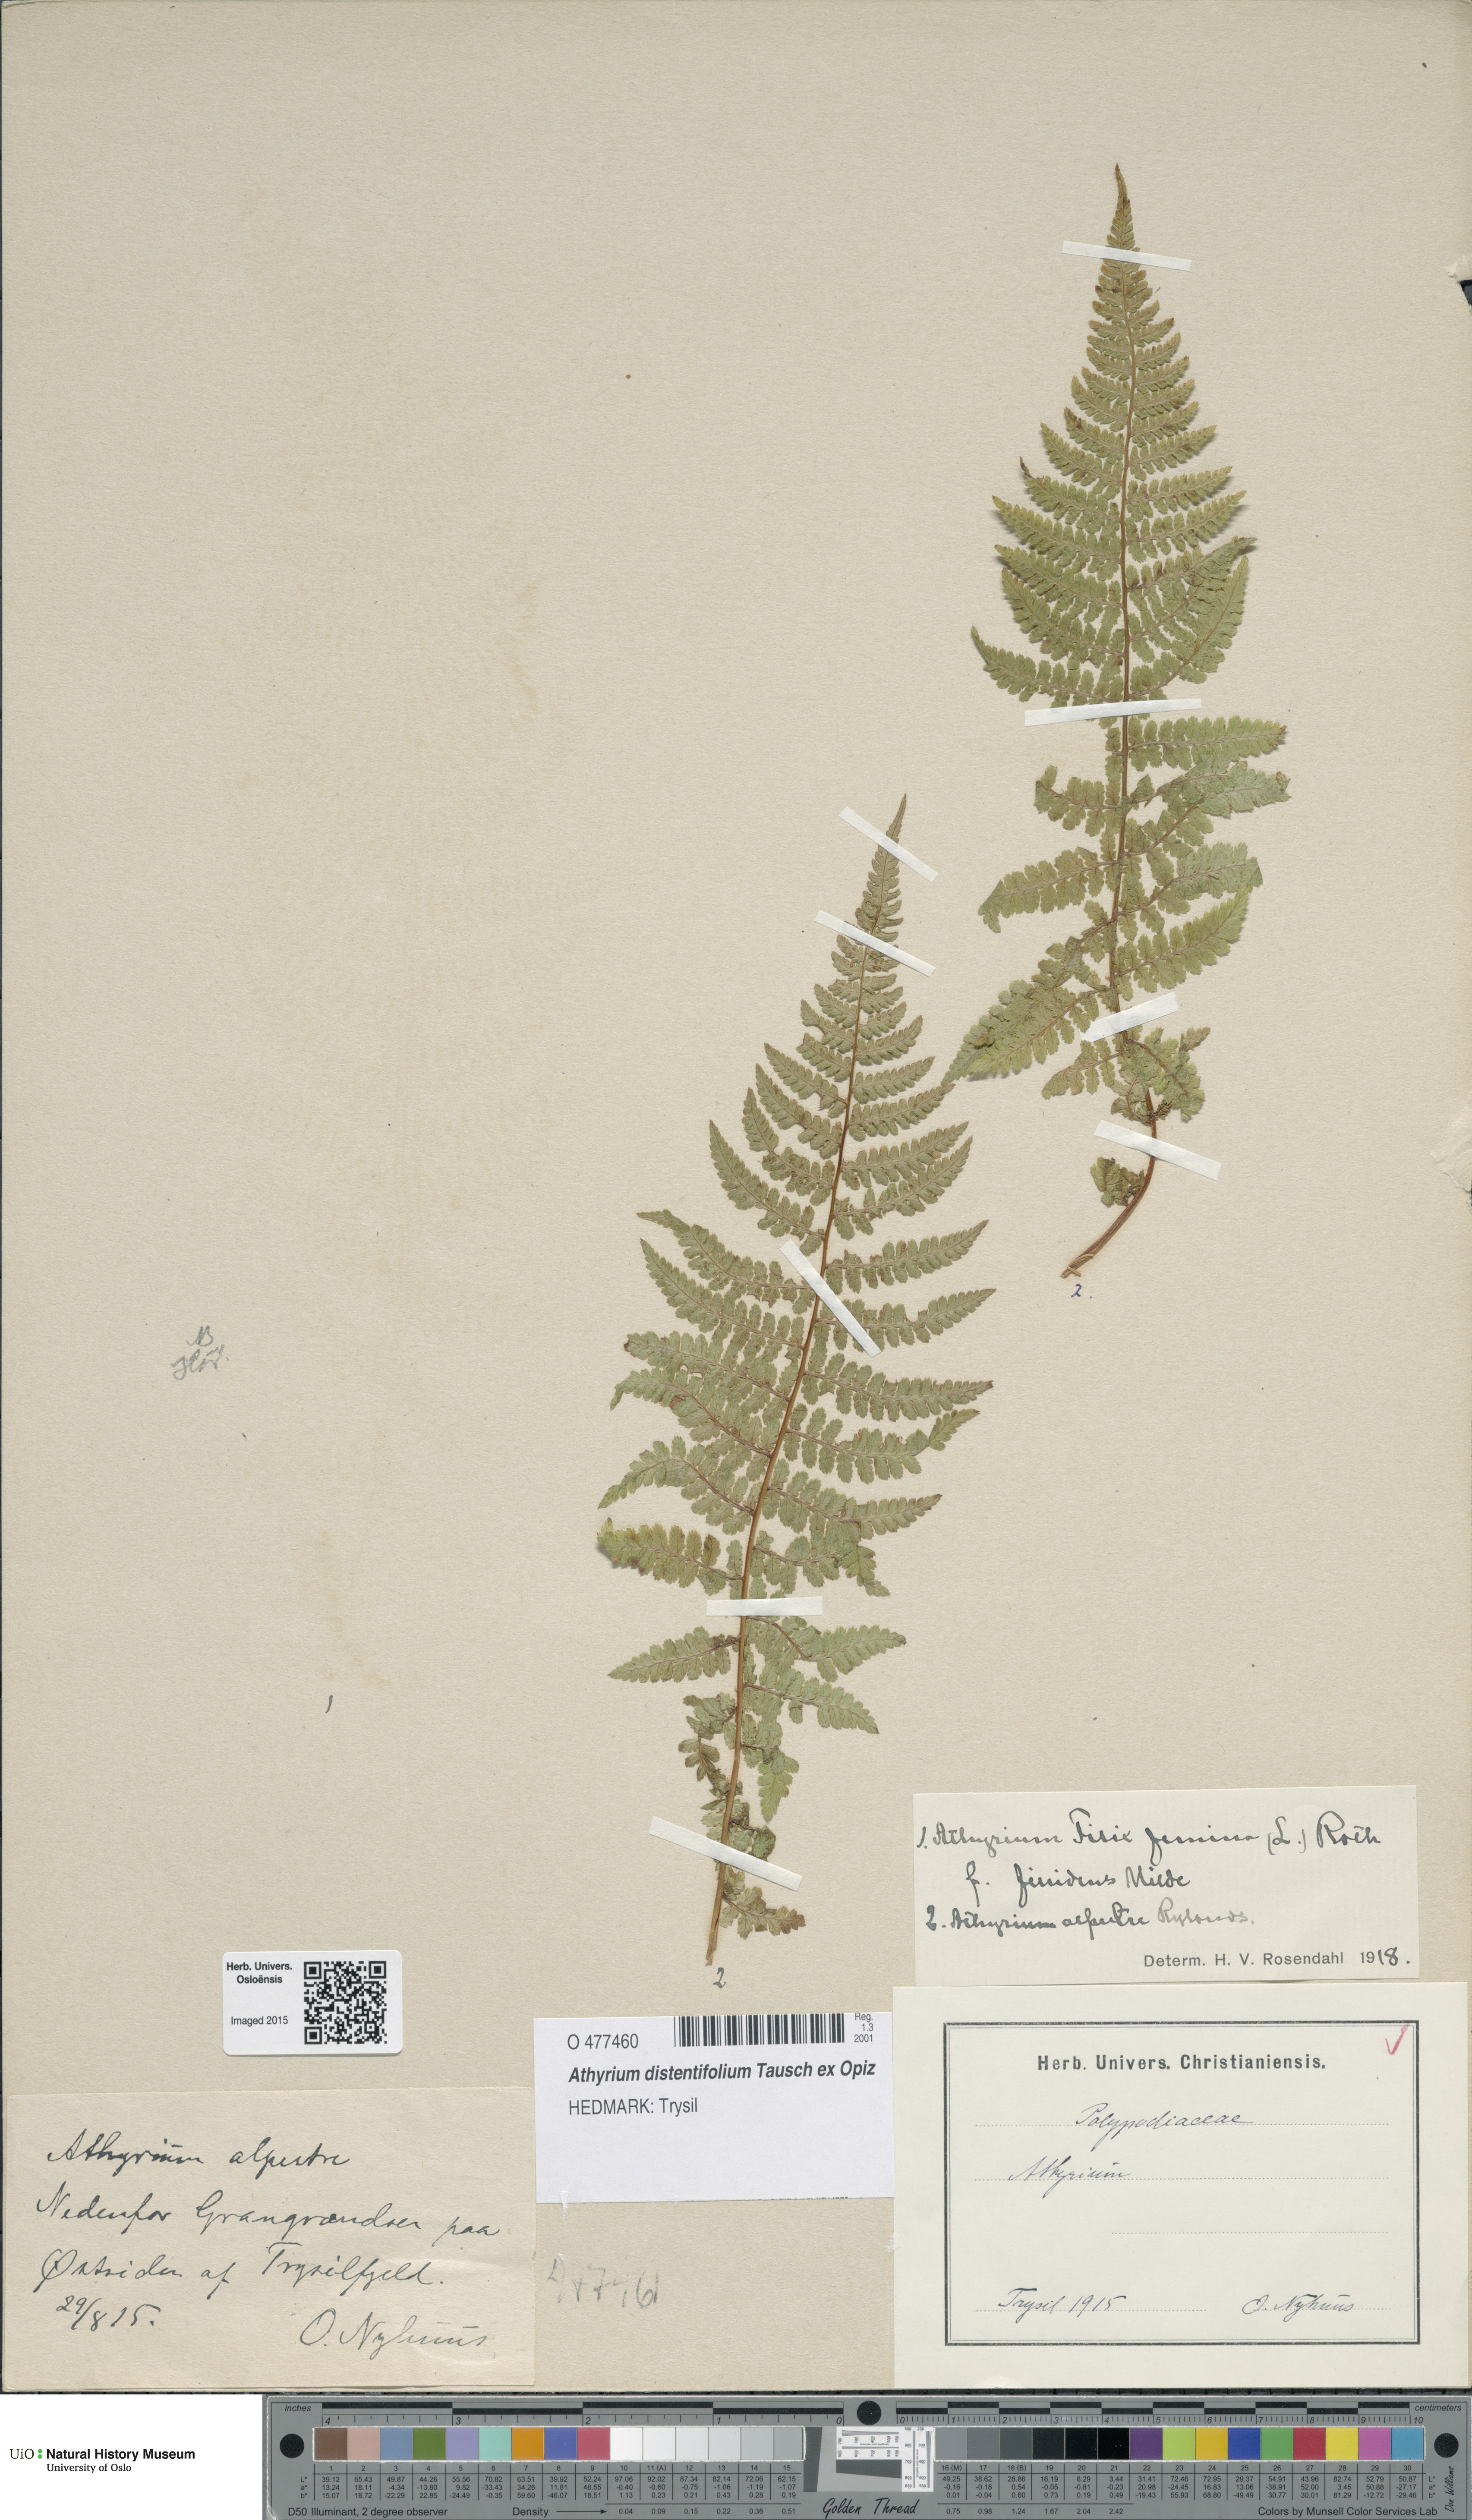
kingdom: Plantae
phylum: Tracheophyta
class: Polypodiopsida
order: Polypodiales
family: Athyriaceae
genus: Pseudathyrium
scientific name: Pseudathyrium alpestre
